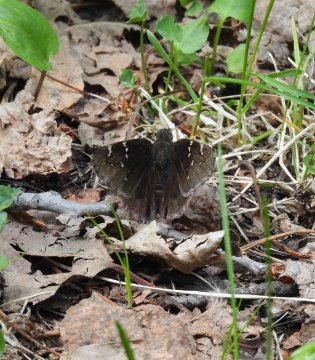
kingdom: Animalia
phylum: Arthropoda
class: Insecta
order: Lepidoptera
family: Hesperiidae
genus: Autochton
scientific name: Autochton
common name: Northern Cloudywing
